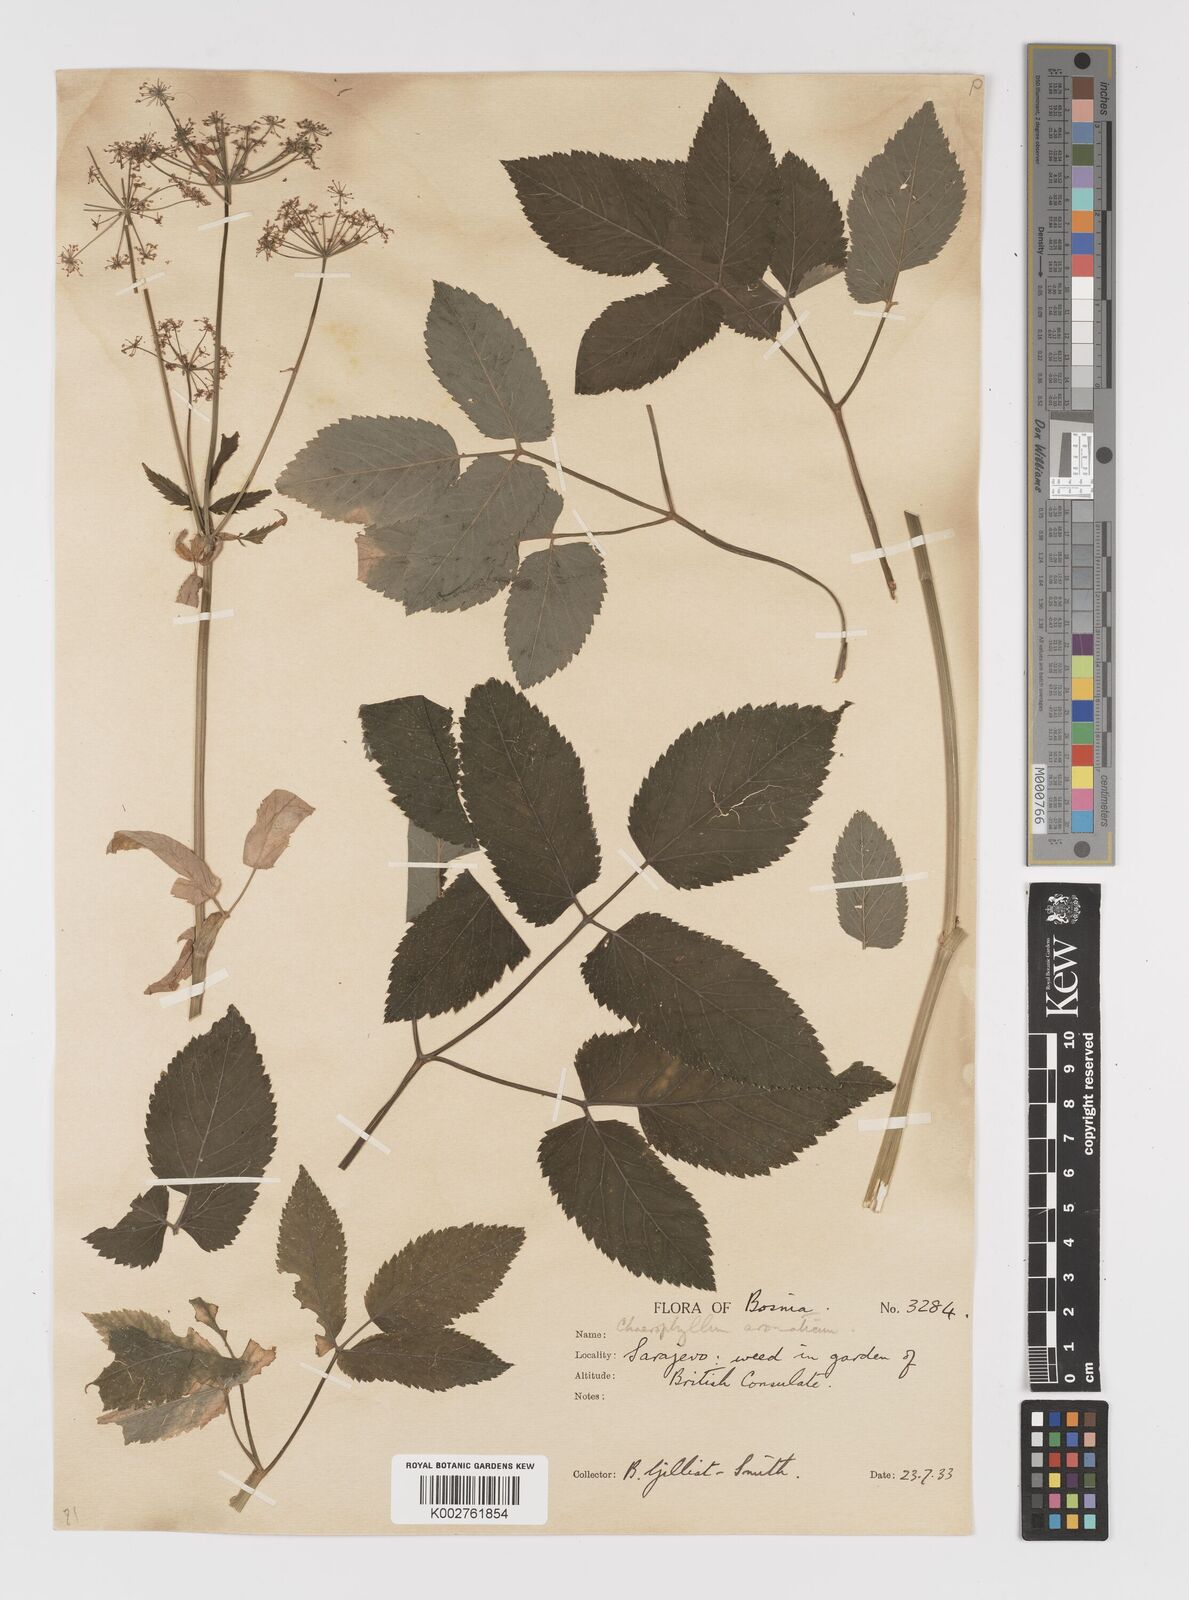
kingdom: Plantae
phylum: Tracheophyta
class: Magnoliopsida
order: Apiales
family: Apiaceae
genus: Chaerophyllum
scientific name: Chaerophyllum aromaticum
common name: Broadleaf chervil
